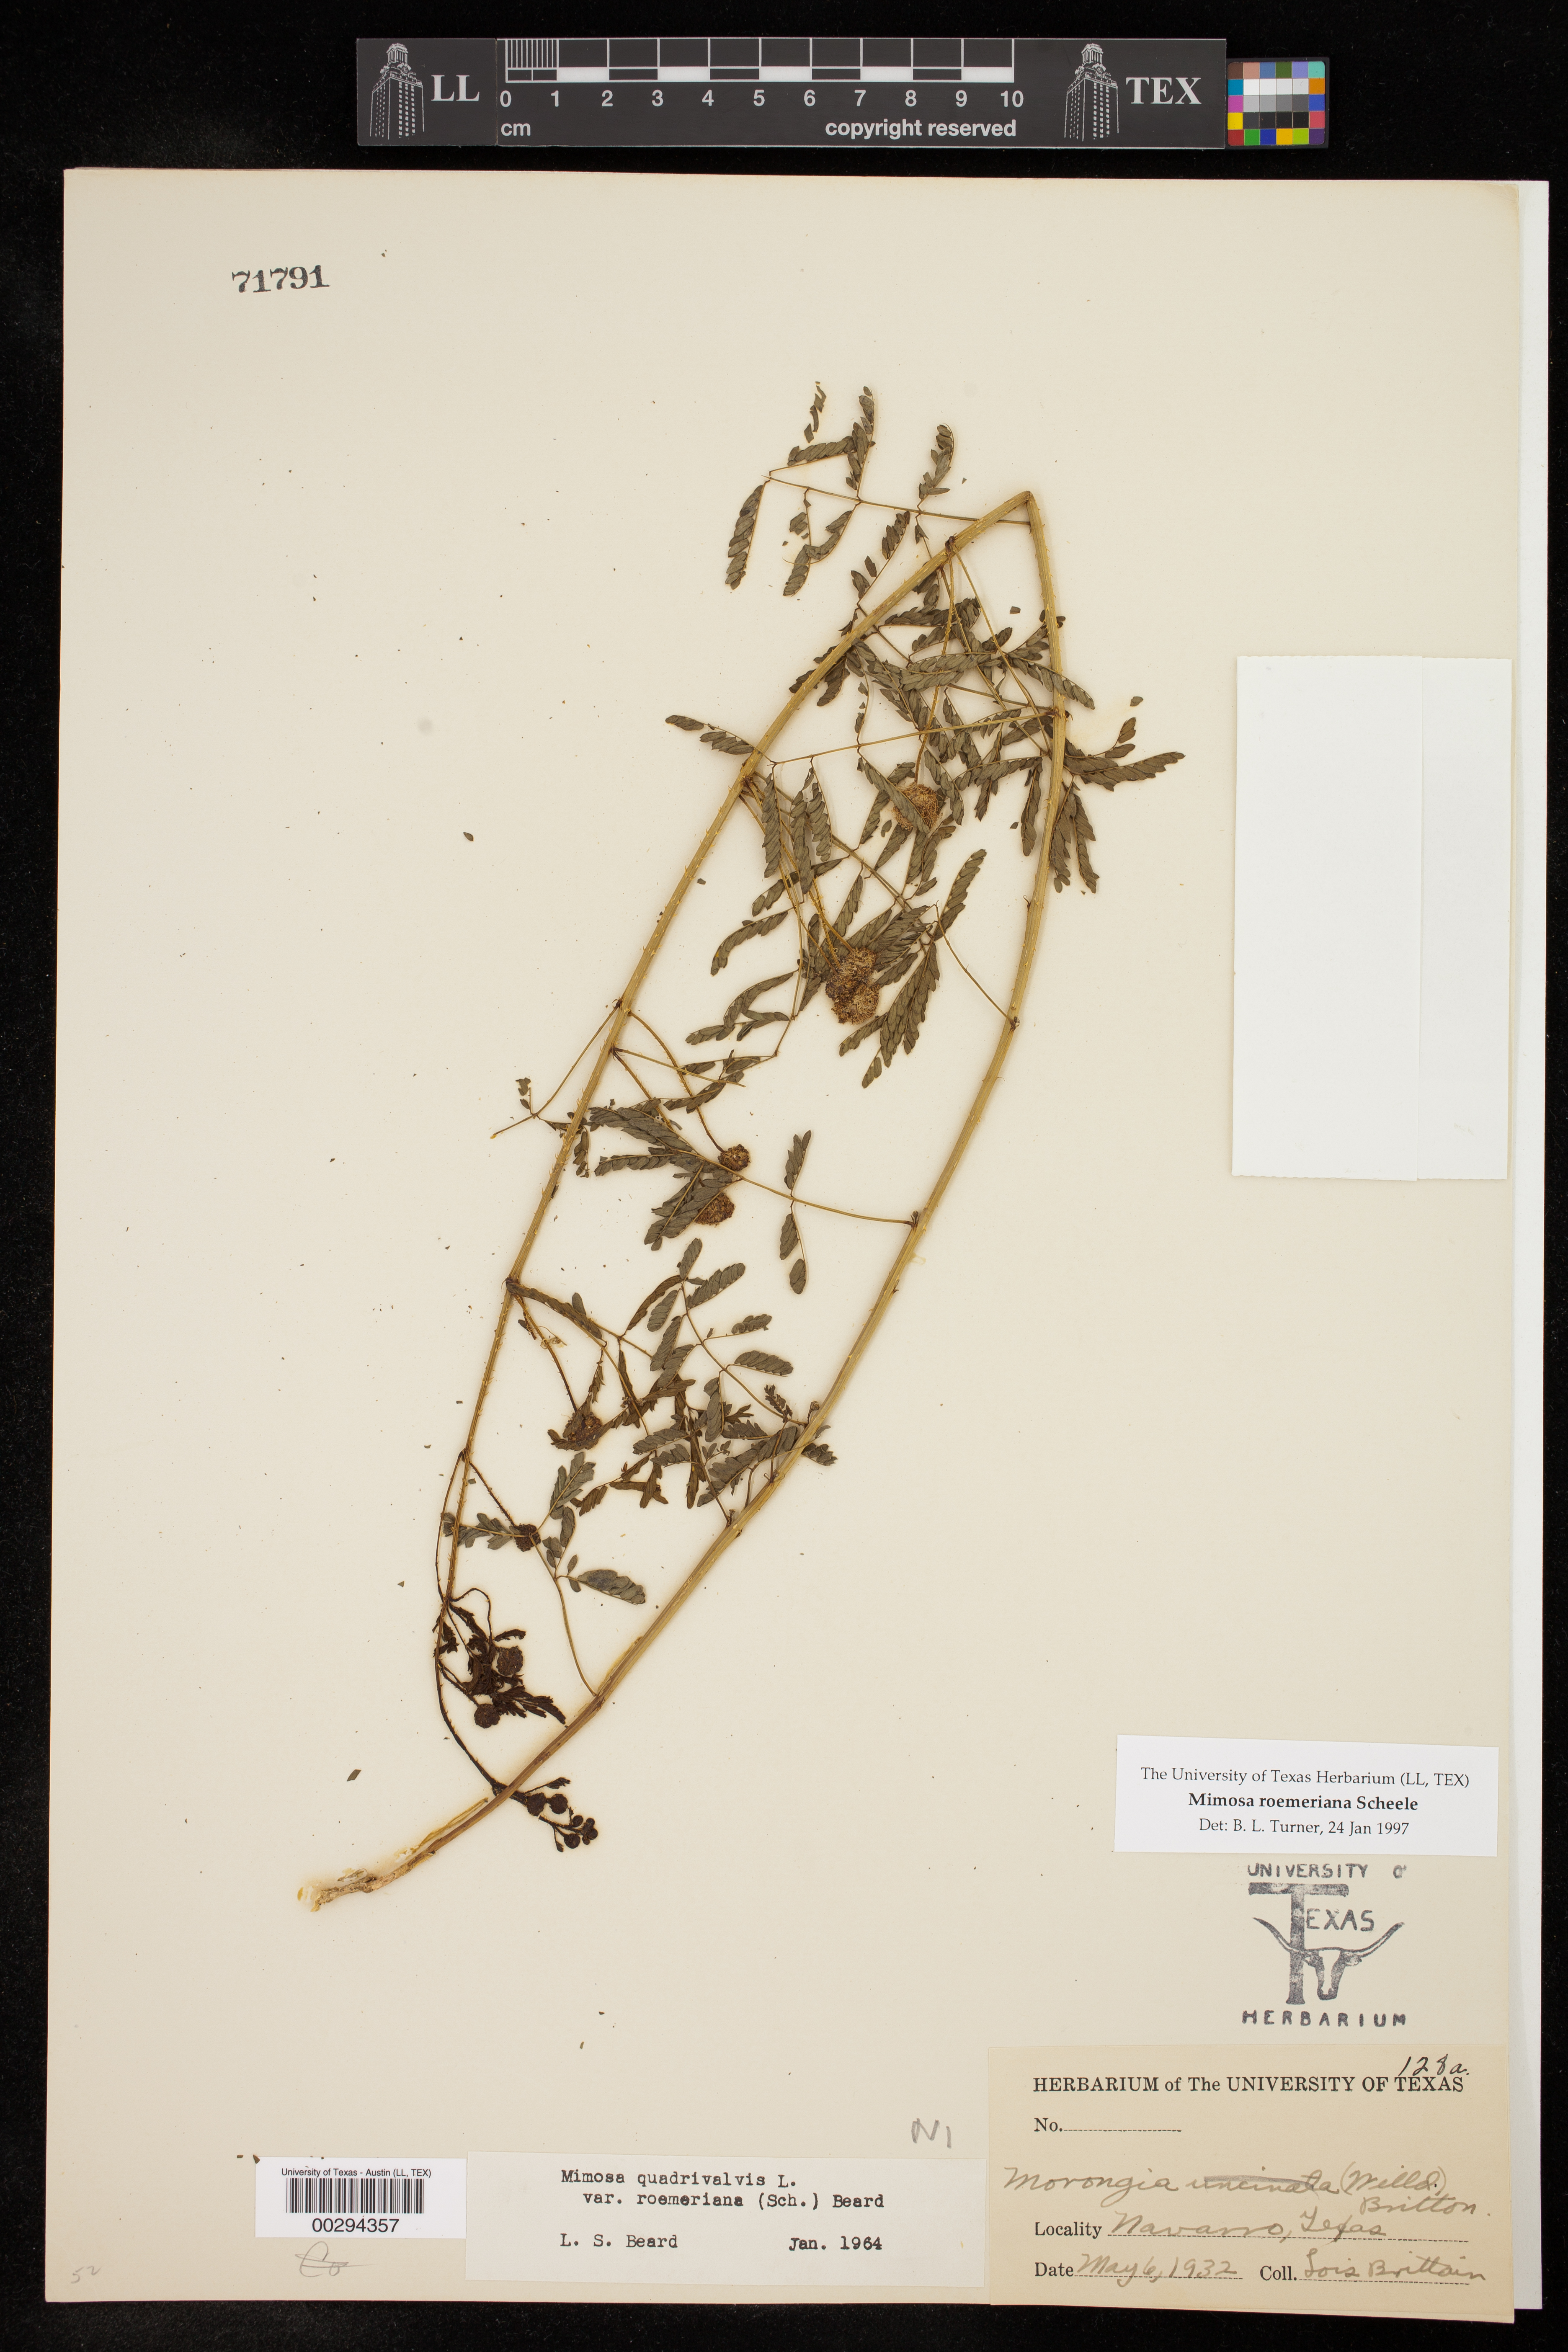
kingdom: Plantae
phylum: Tracheophyta
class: Magnoliopsida
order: Fabales
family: Fabaceae
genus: Mimosa
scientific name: Mimosa quadrivalvis
